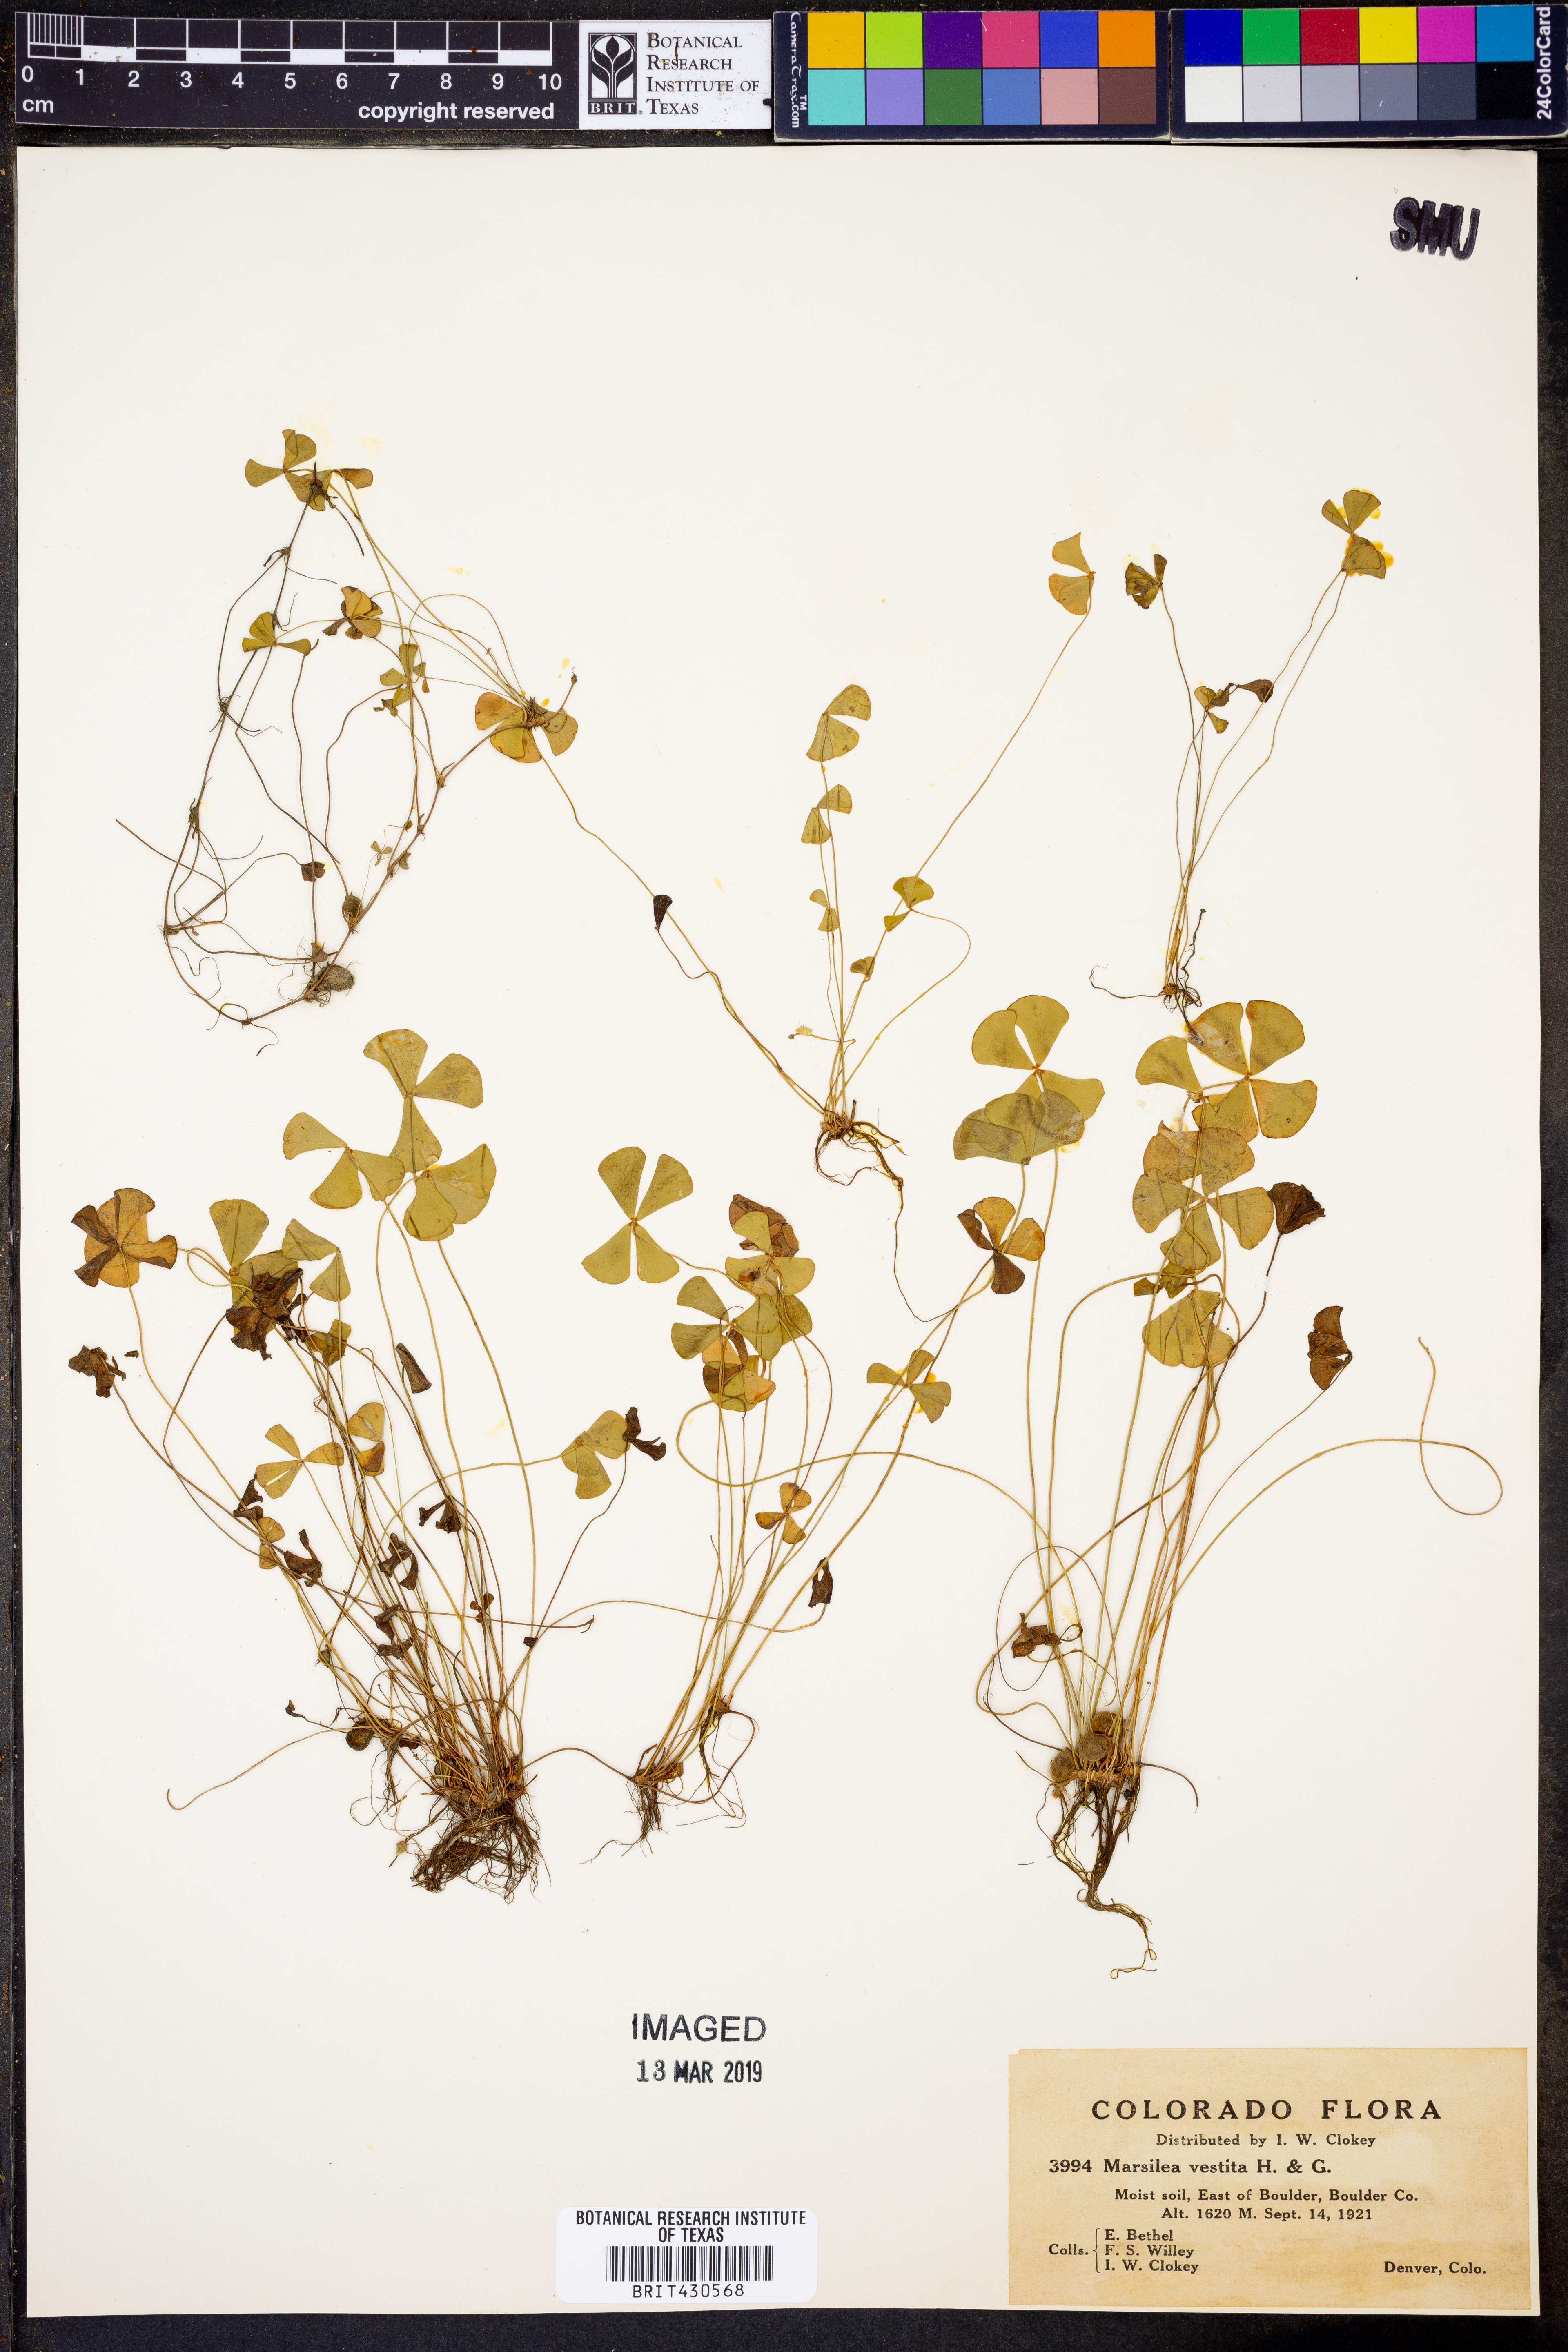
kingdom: Plantae
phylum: Tracheophyta
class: Polypodiopsida
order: Salviniales
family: Marsileaceae
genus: Marsilea
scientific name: Marsilea vestita
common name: Hooked-pepperwort
